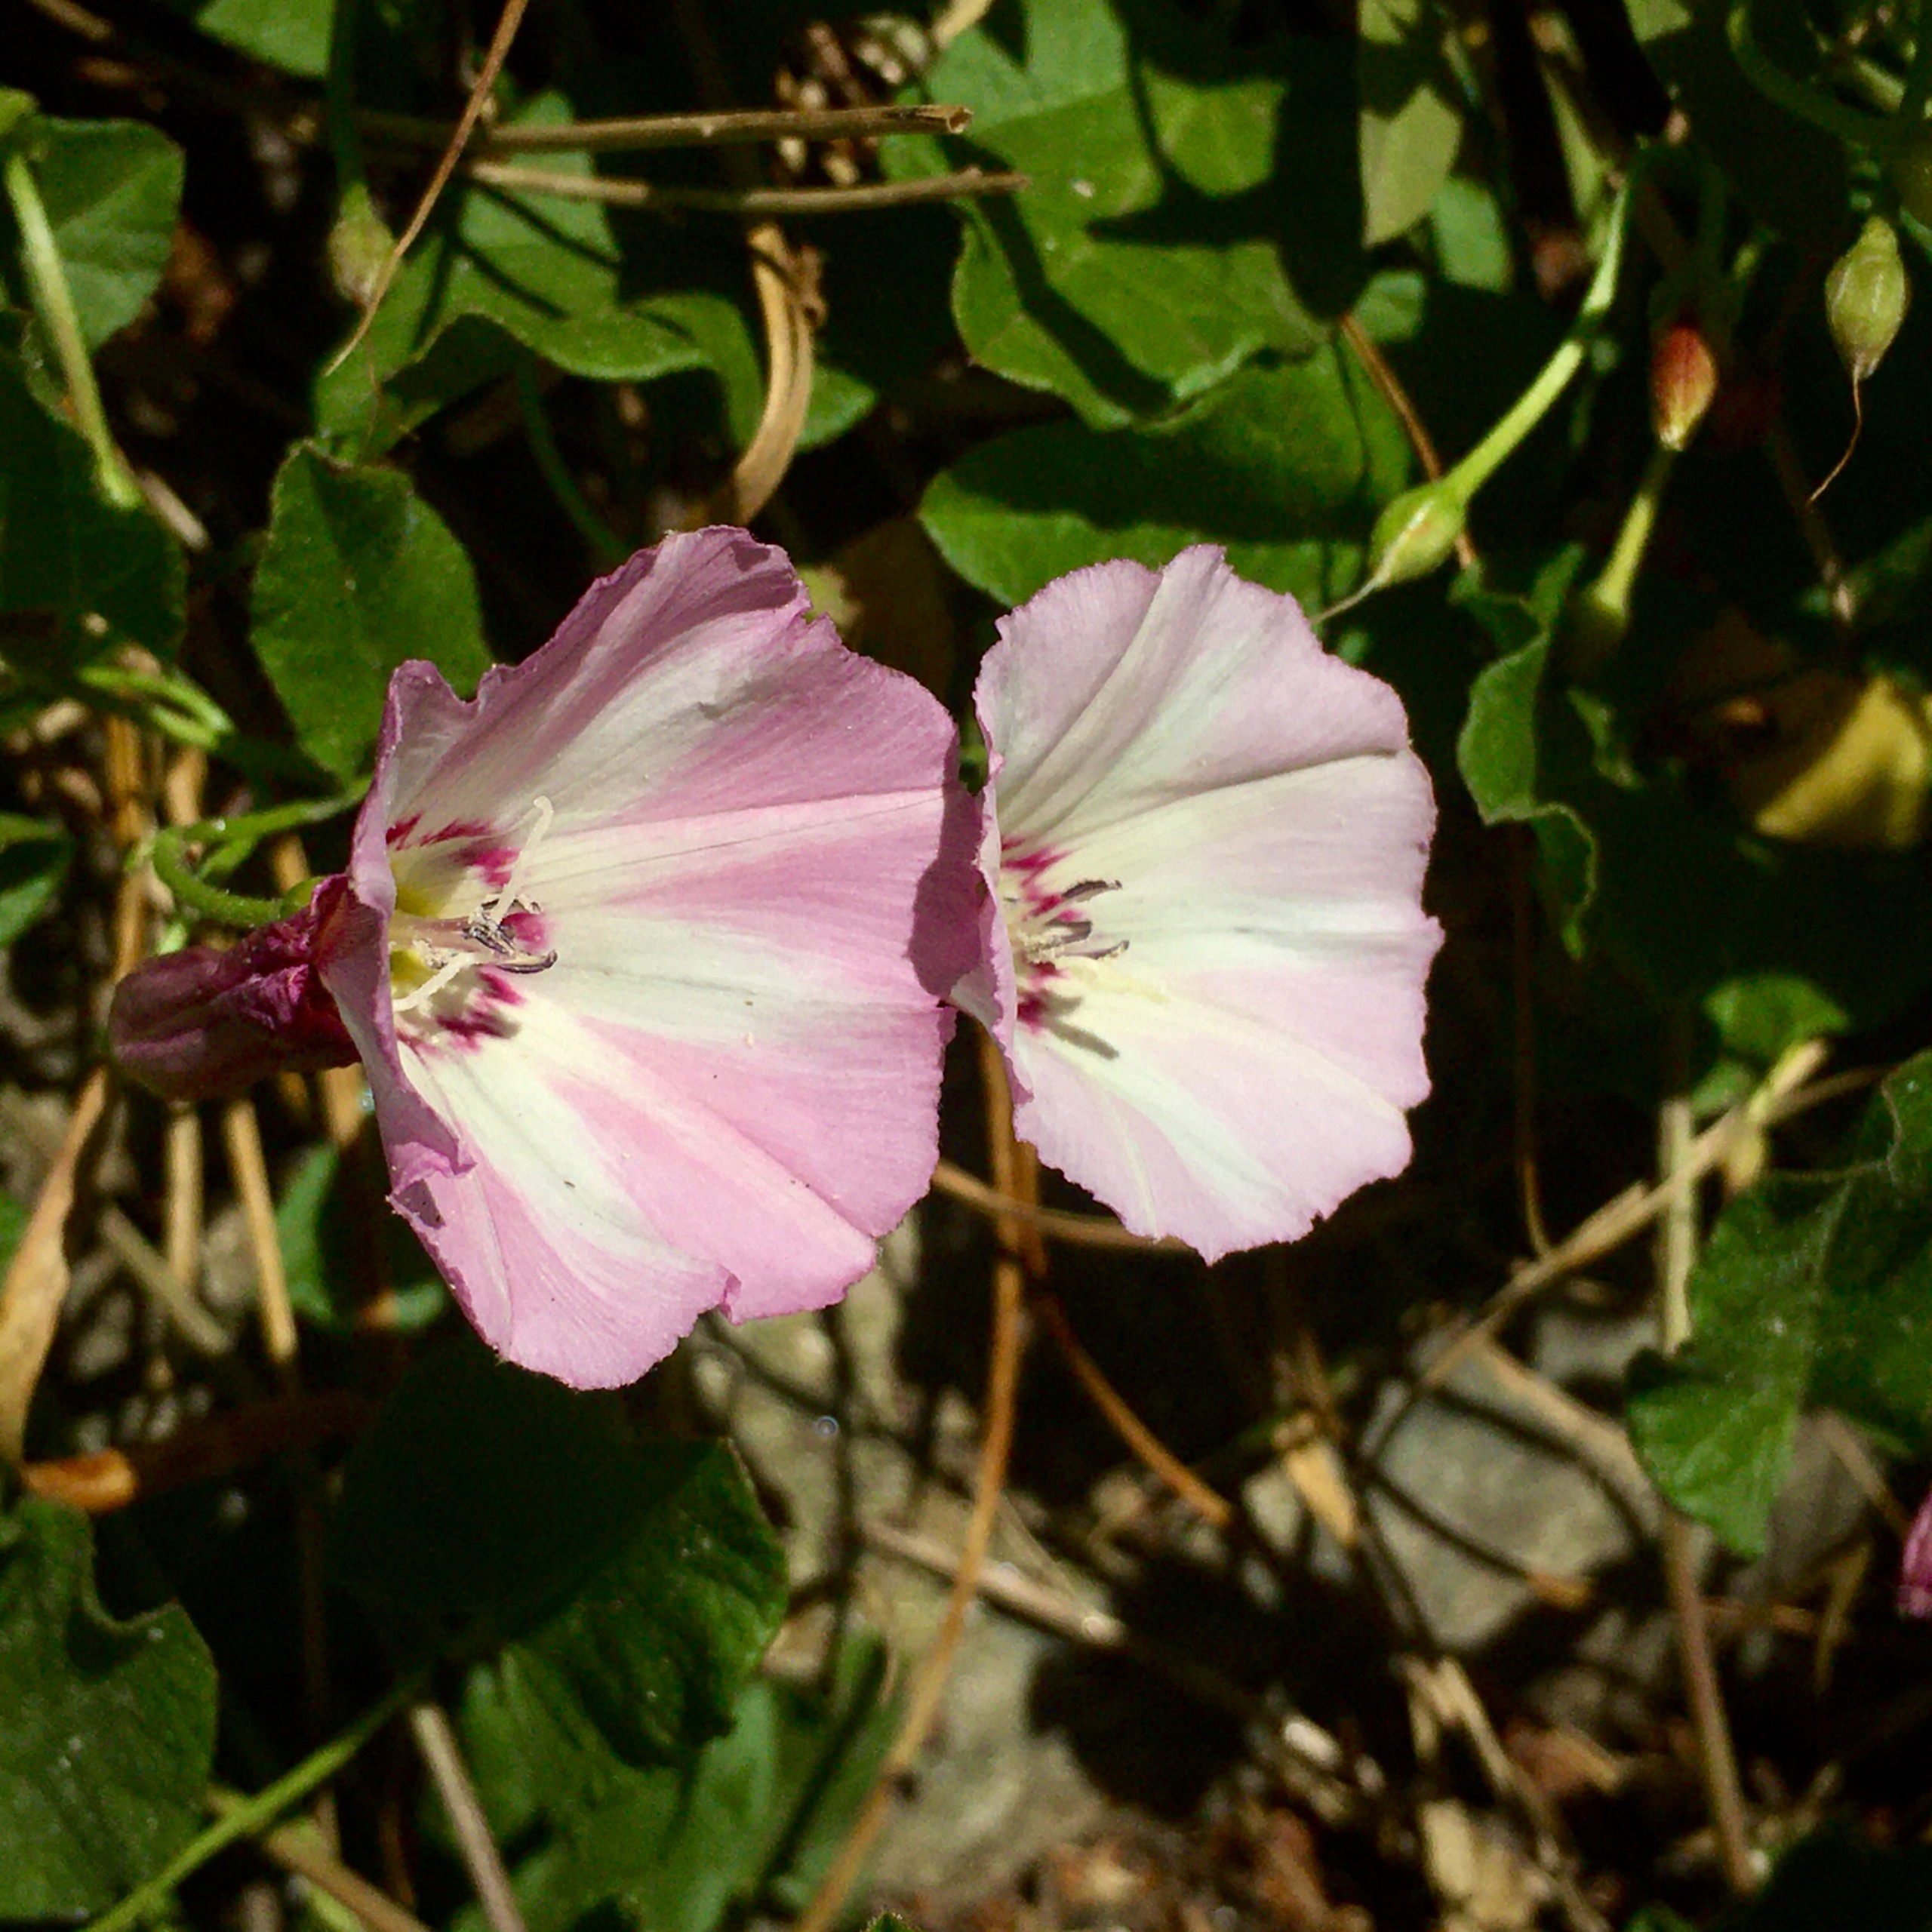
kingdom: Plantae
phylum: Tracheophyta
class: Magnoliopsida
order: Solanales
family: Convolvulaceae
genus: Convolvulus
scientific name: Convolvulus arvensis
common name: Ager-snerle
